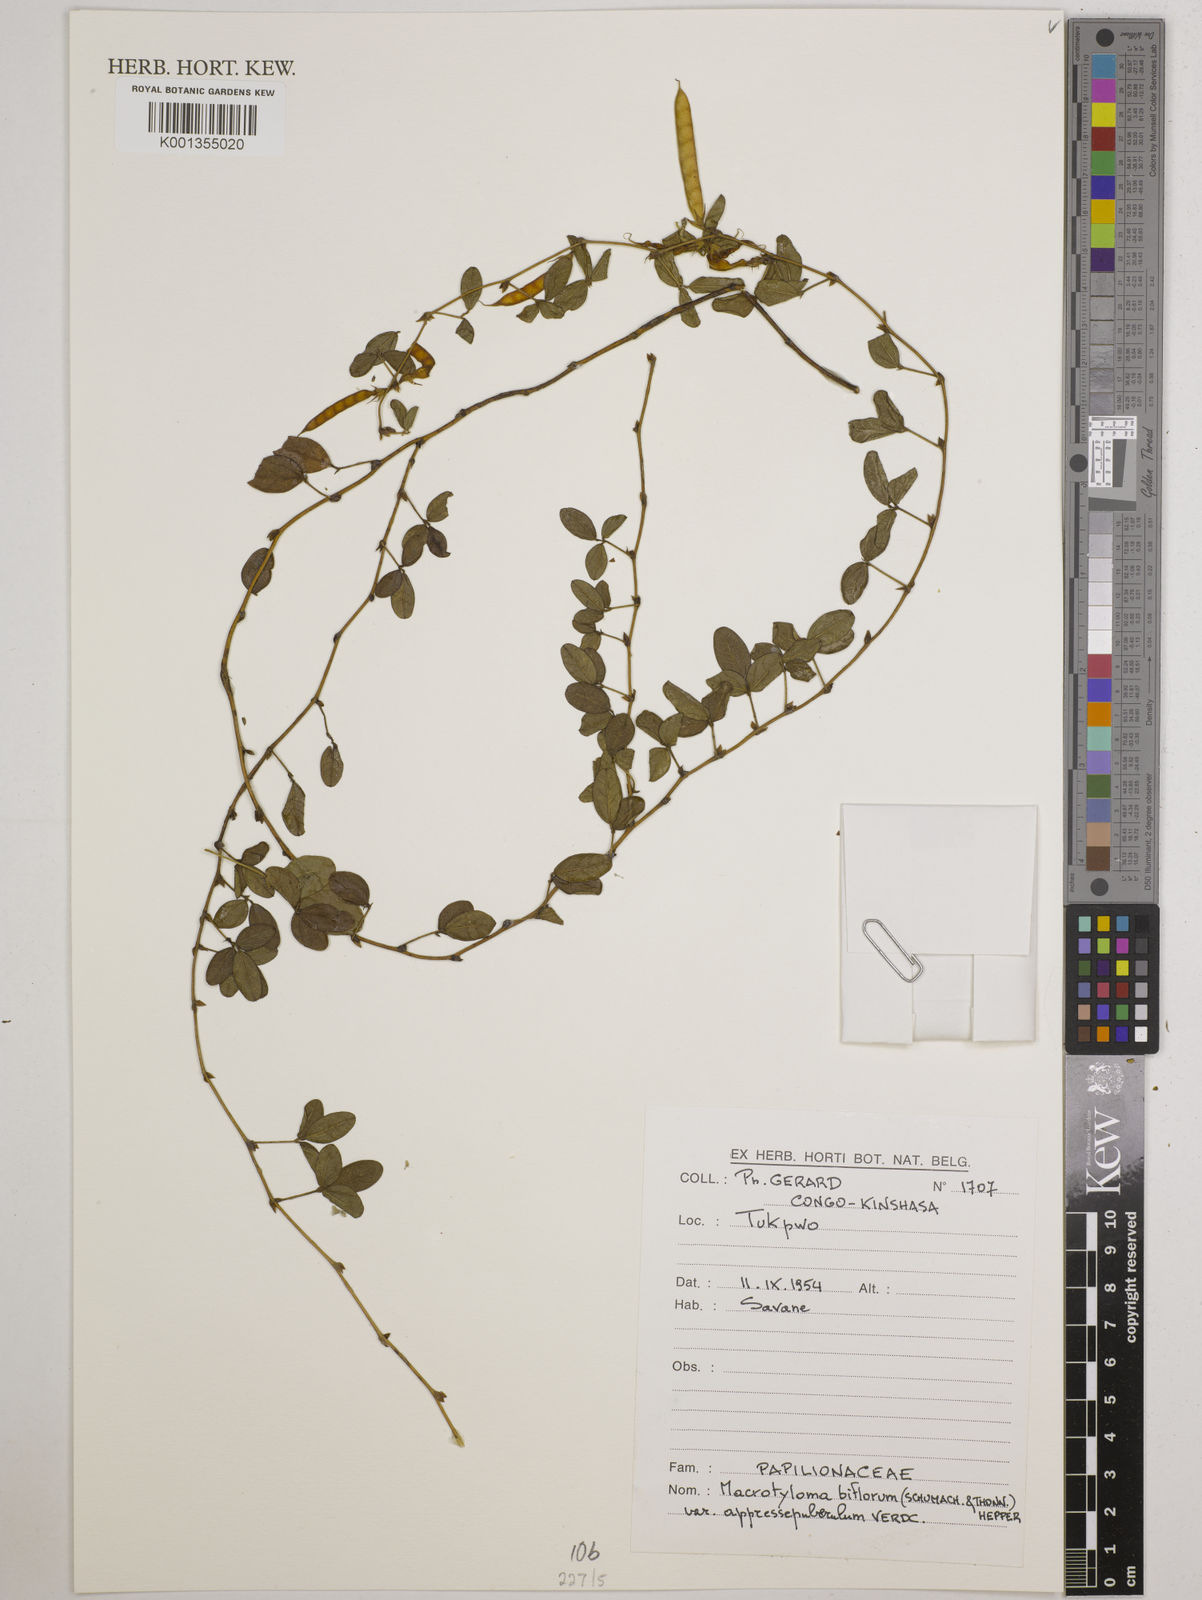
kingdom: Plantae
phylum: Tracheophyta
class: Magnoliopsida
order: Fabales
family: Fabaceae
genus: Macrotyloma
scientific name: Macrotyloma biflorum
